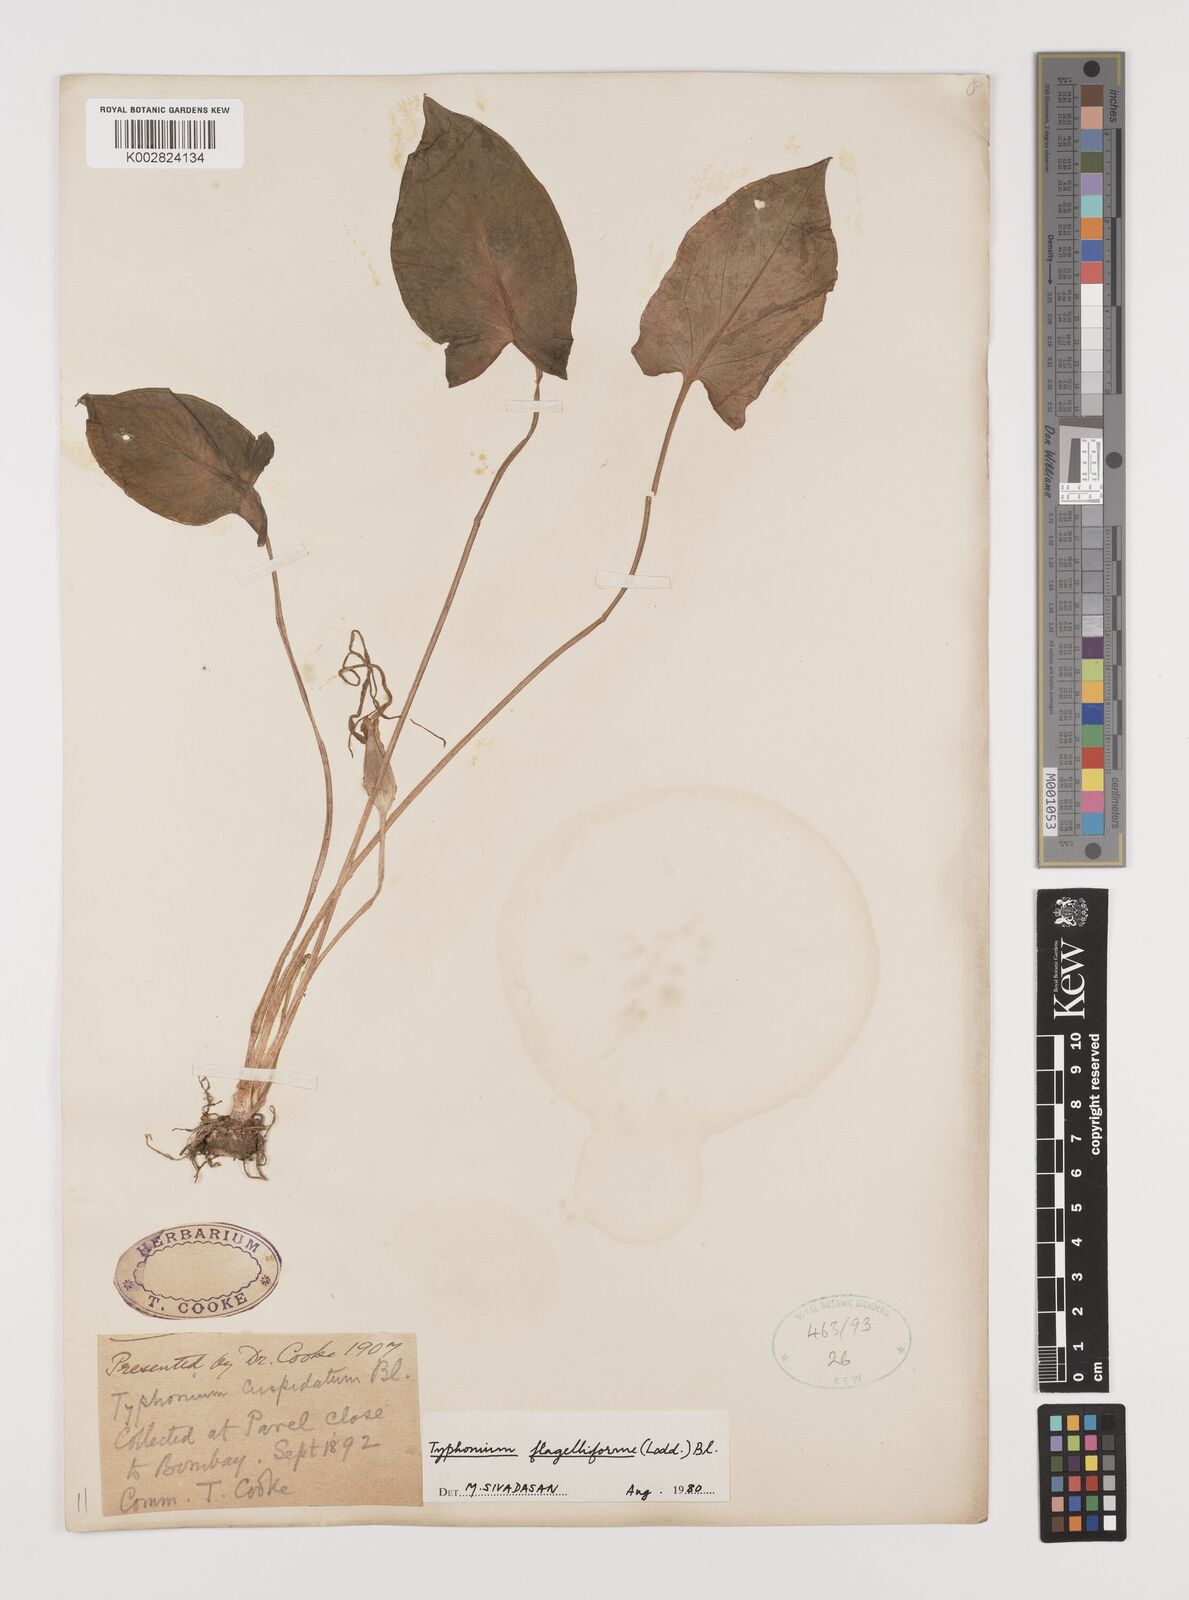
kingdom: Plantae
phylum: Tracheophyta
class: Liliopsida
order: Alismatales
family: Araceae
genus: Typhonium
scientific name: Typhonium flagelliforme
